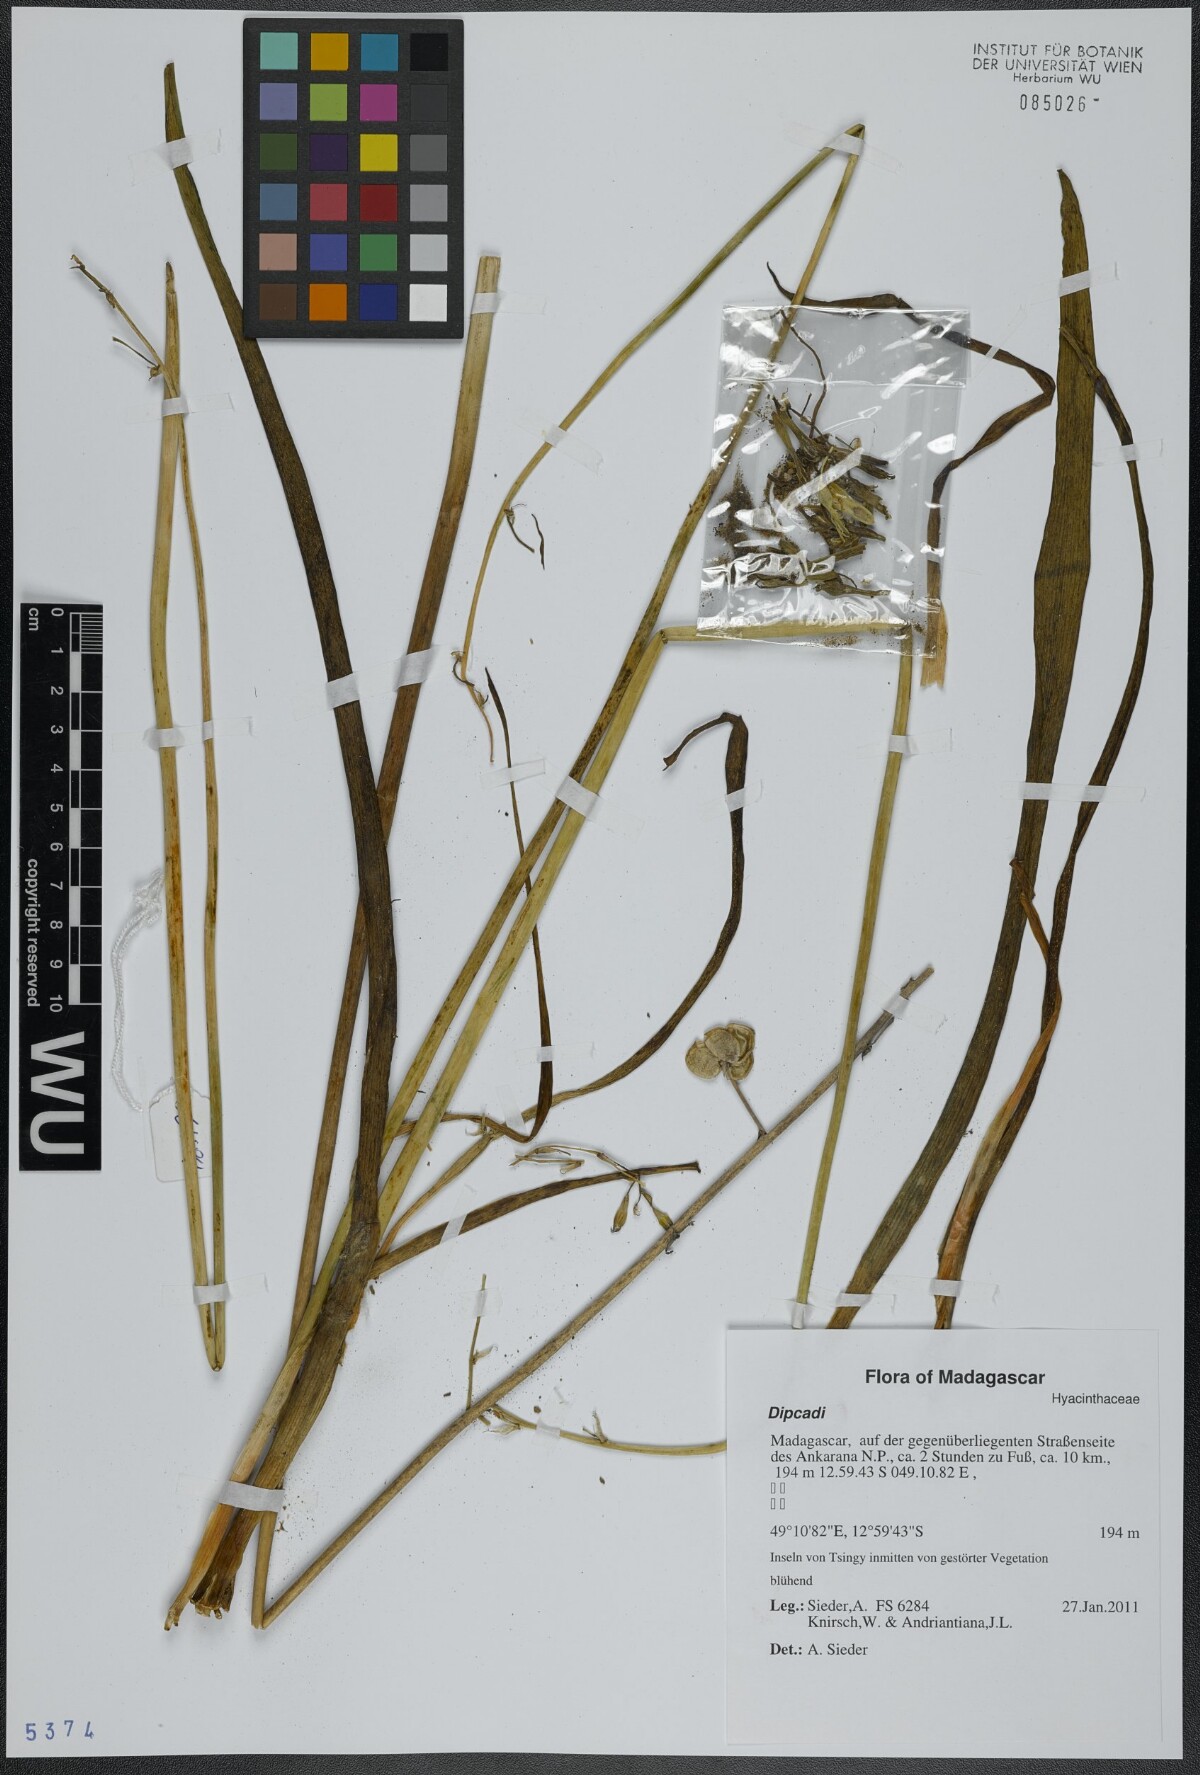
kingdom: Plantae
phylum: Tracheophyta
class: Liliopsida
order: Asparagales
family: Asparagaceae
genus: Dipcadi
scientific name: Dipcadi
